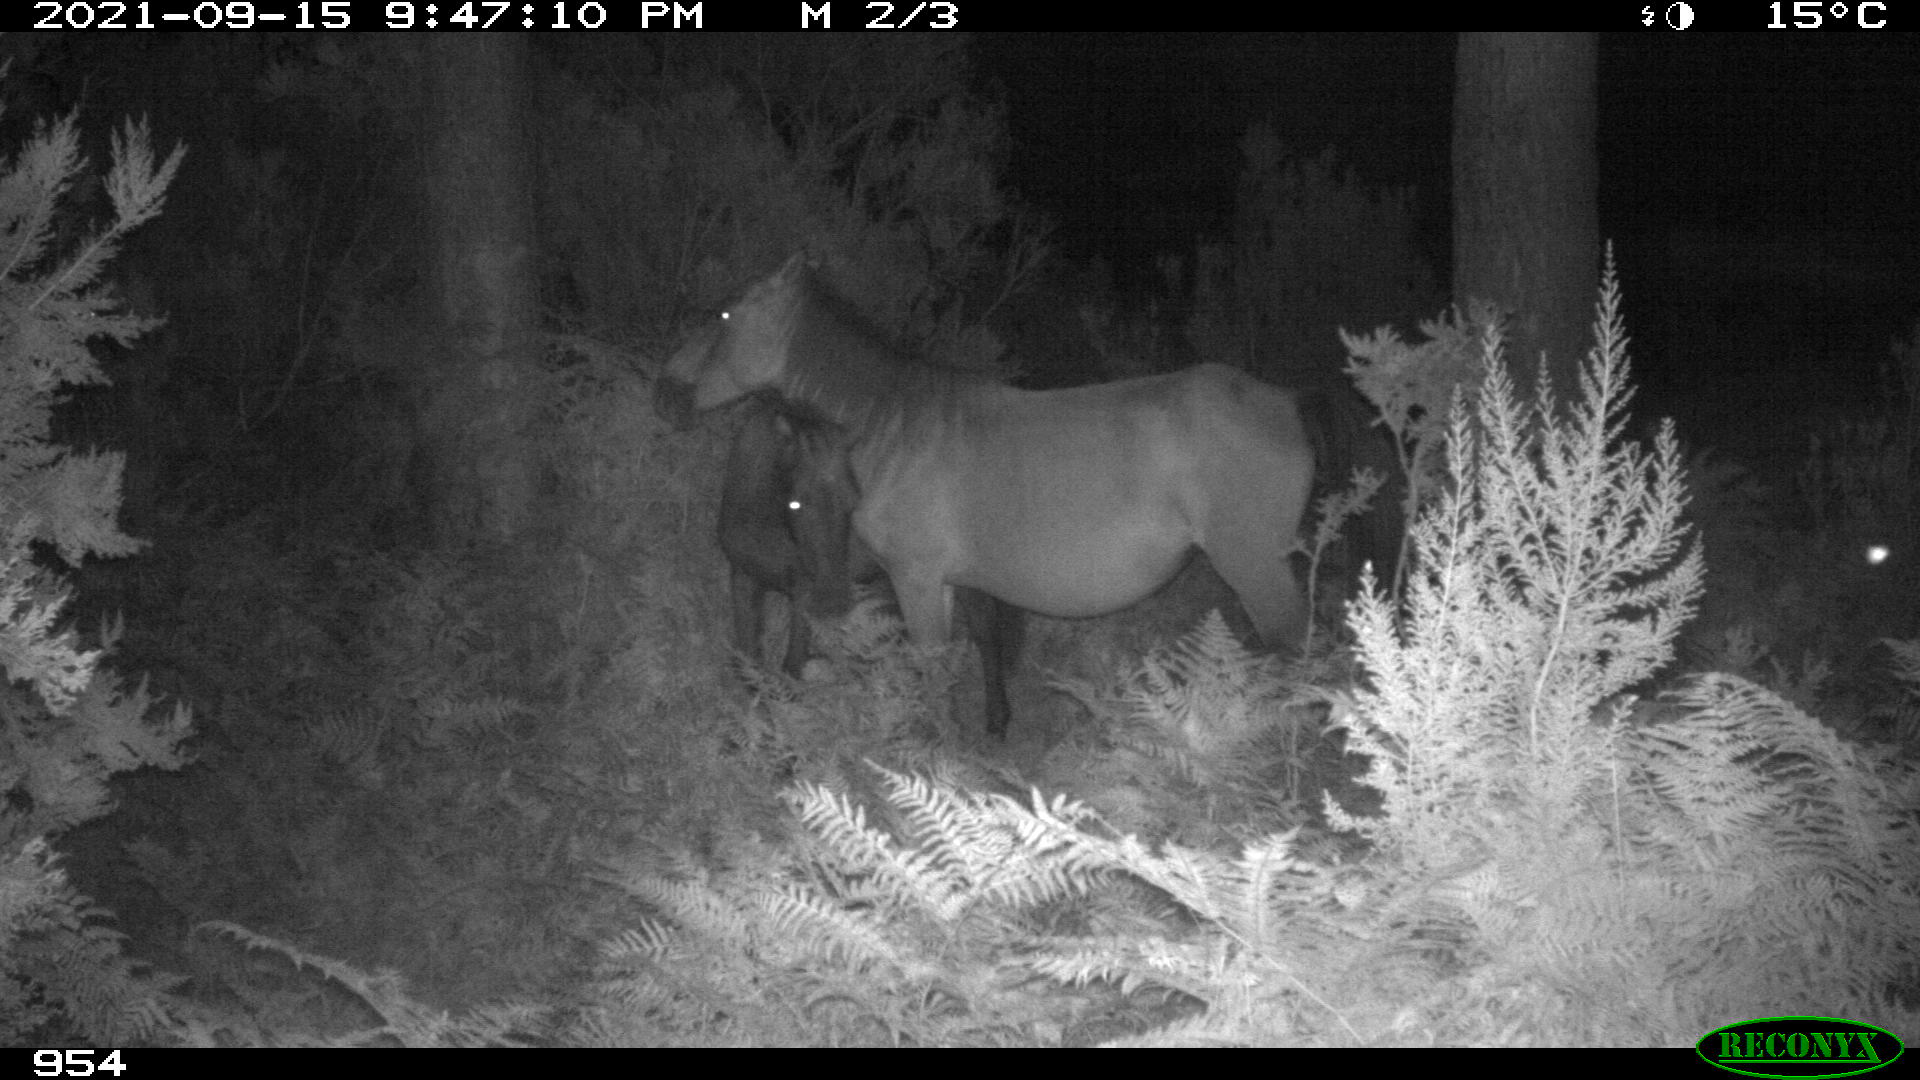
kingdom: Animalia
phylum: Chordata
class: Mammalia
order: Perissodactyla
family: Equidae
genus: Equus
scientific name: Equus caballus
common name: Horse
